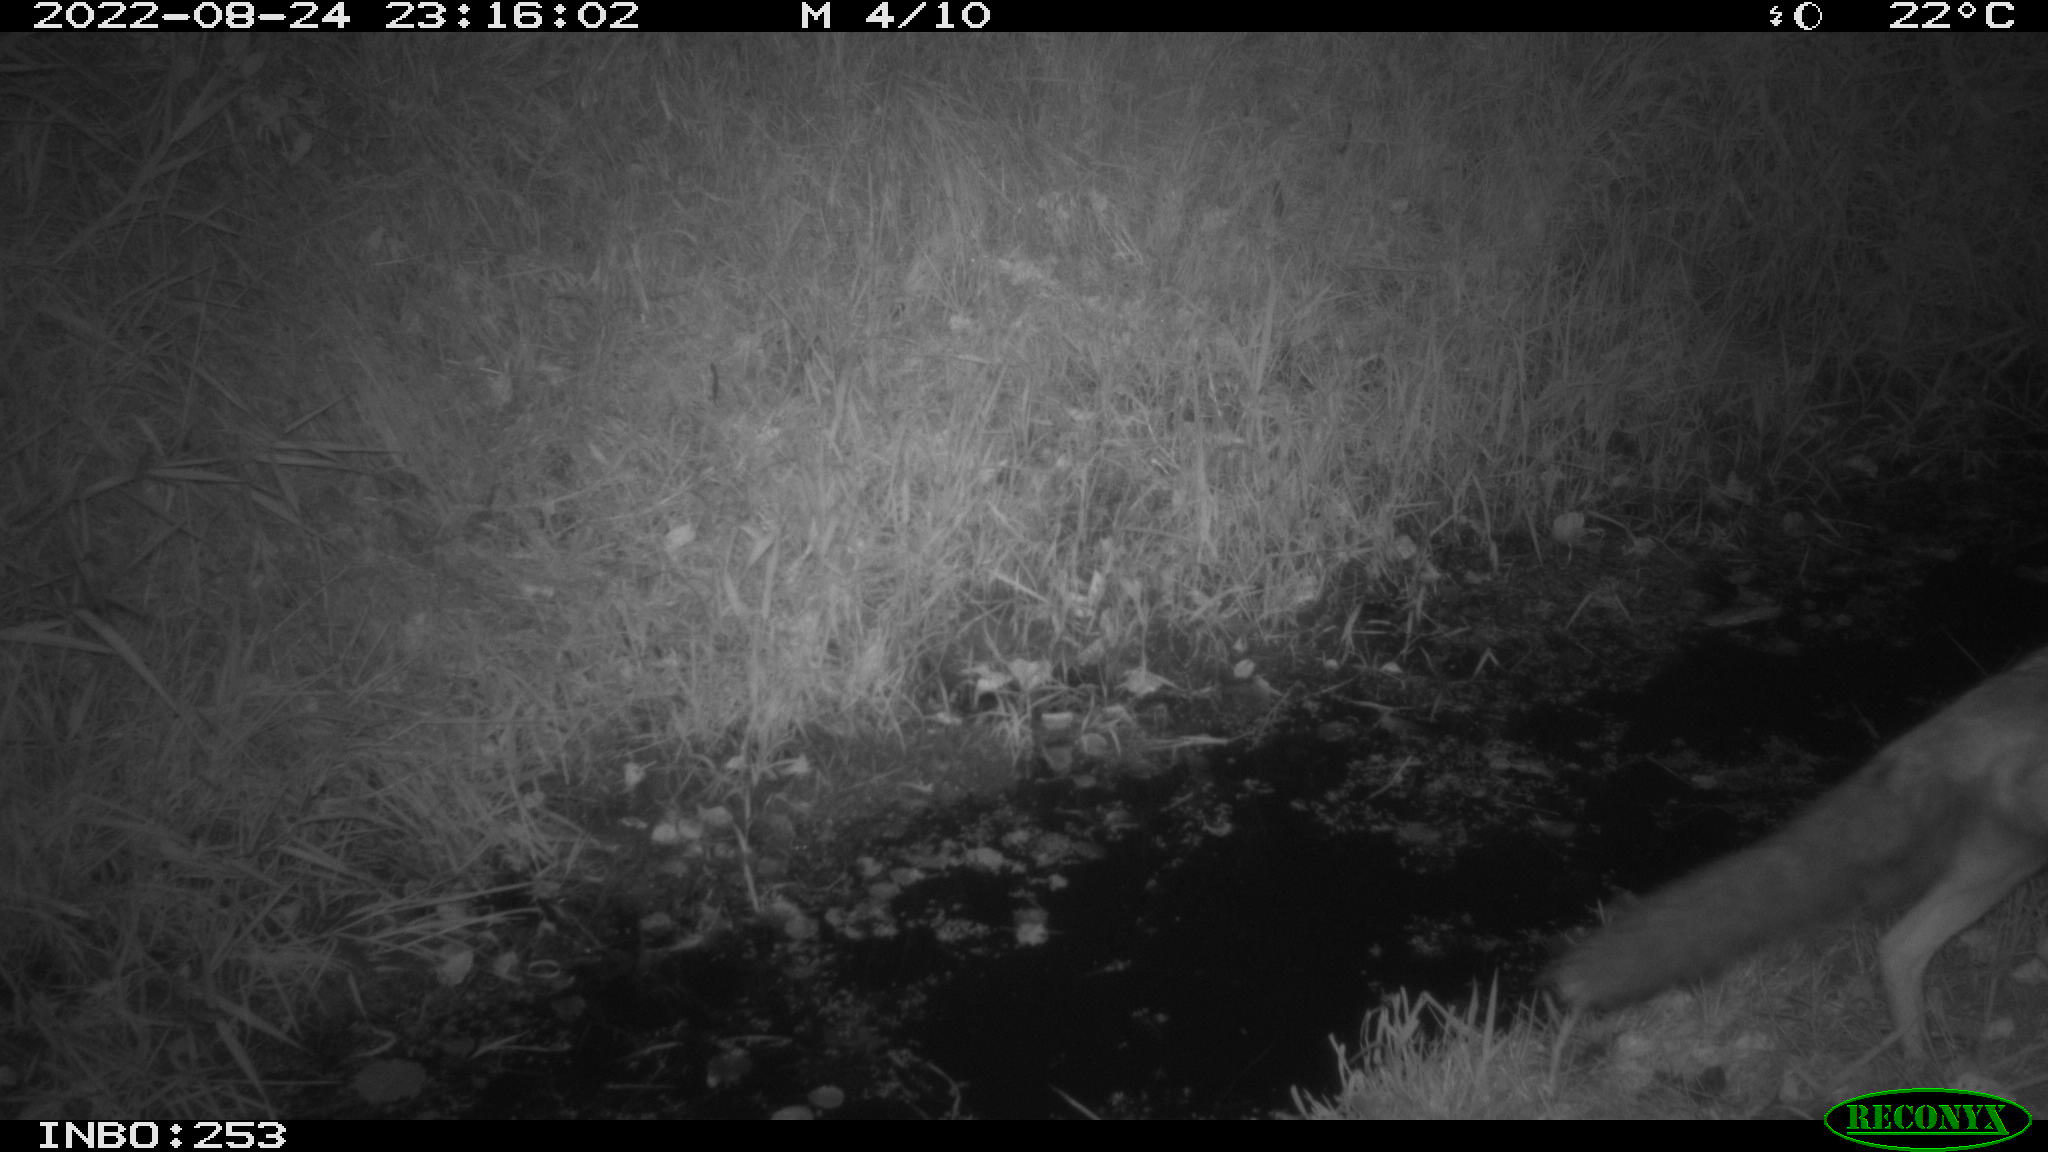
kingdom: Animalia
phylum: Chordata
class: Mammalia
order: Carnivora
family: Canidae
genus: Vulpes
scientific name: Vulpes vulpes
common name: Red fox
